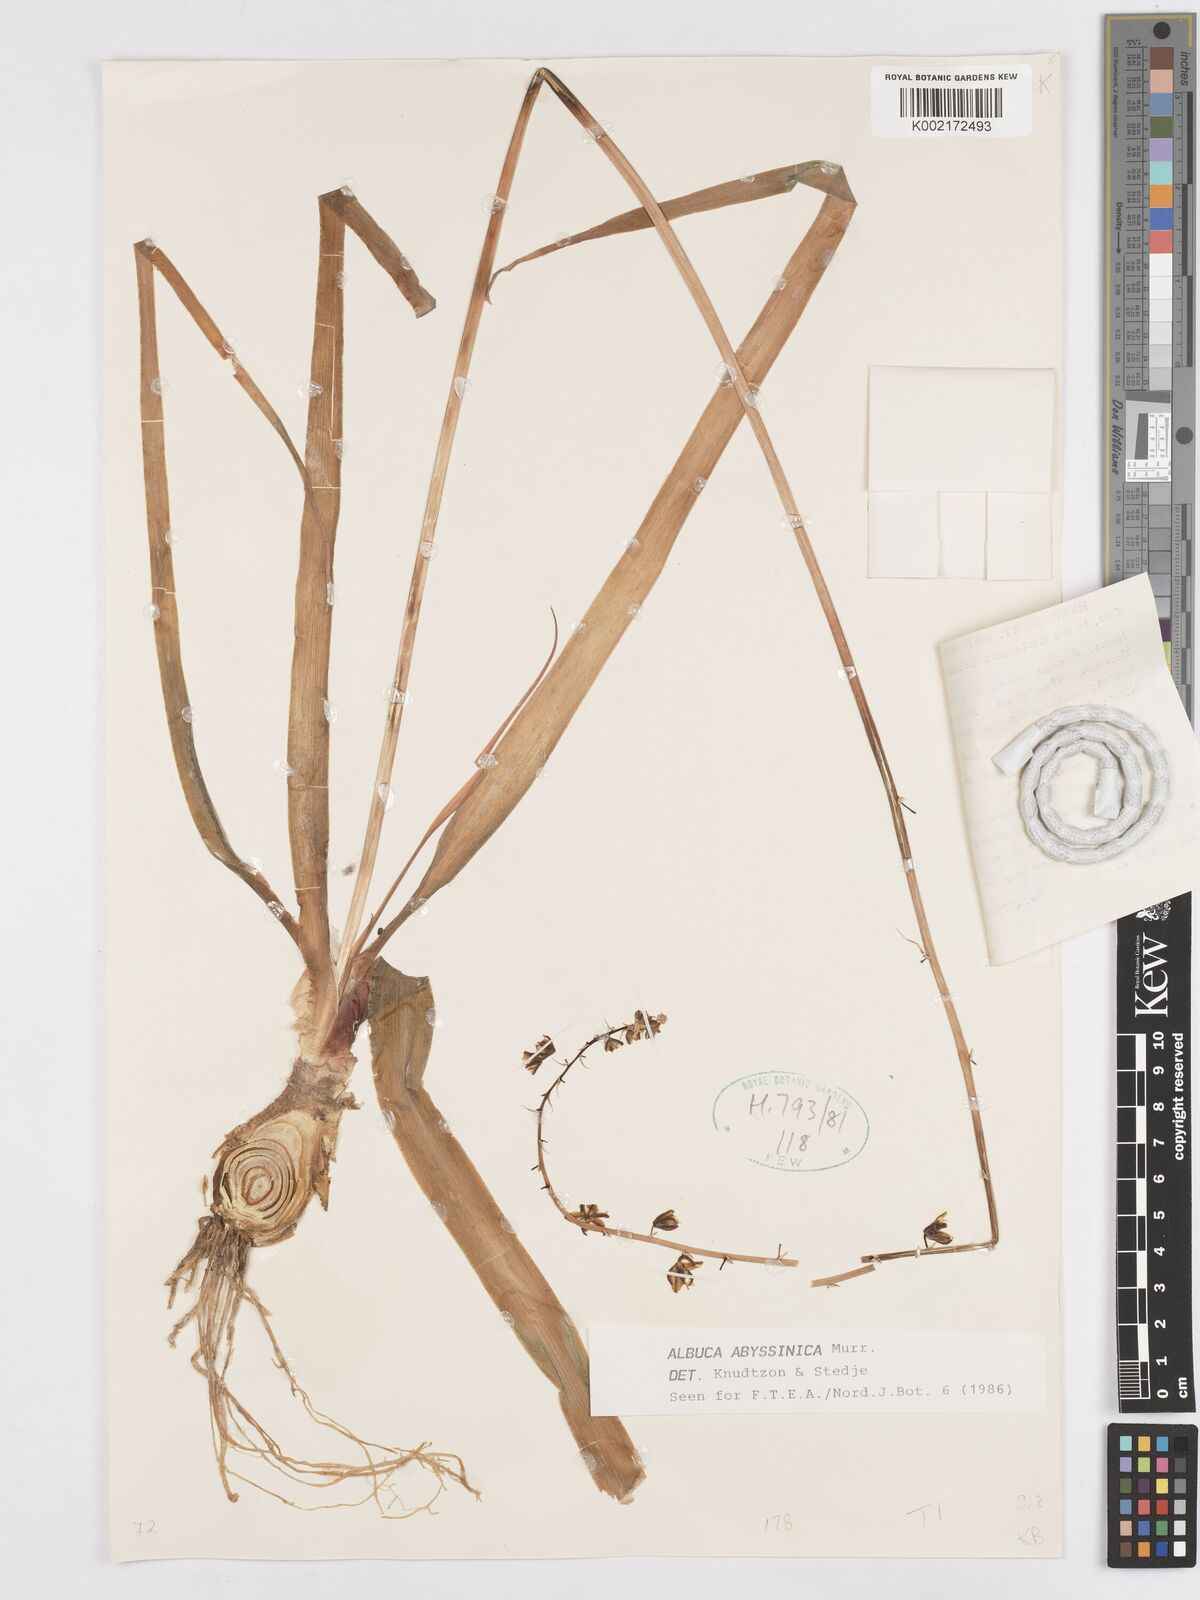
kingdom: Plantae
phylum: Tracheophyta
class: Liliopsida
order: Asparagales
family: Asparagaceae
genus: Albuca
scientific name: Albuca abyssinica
